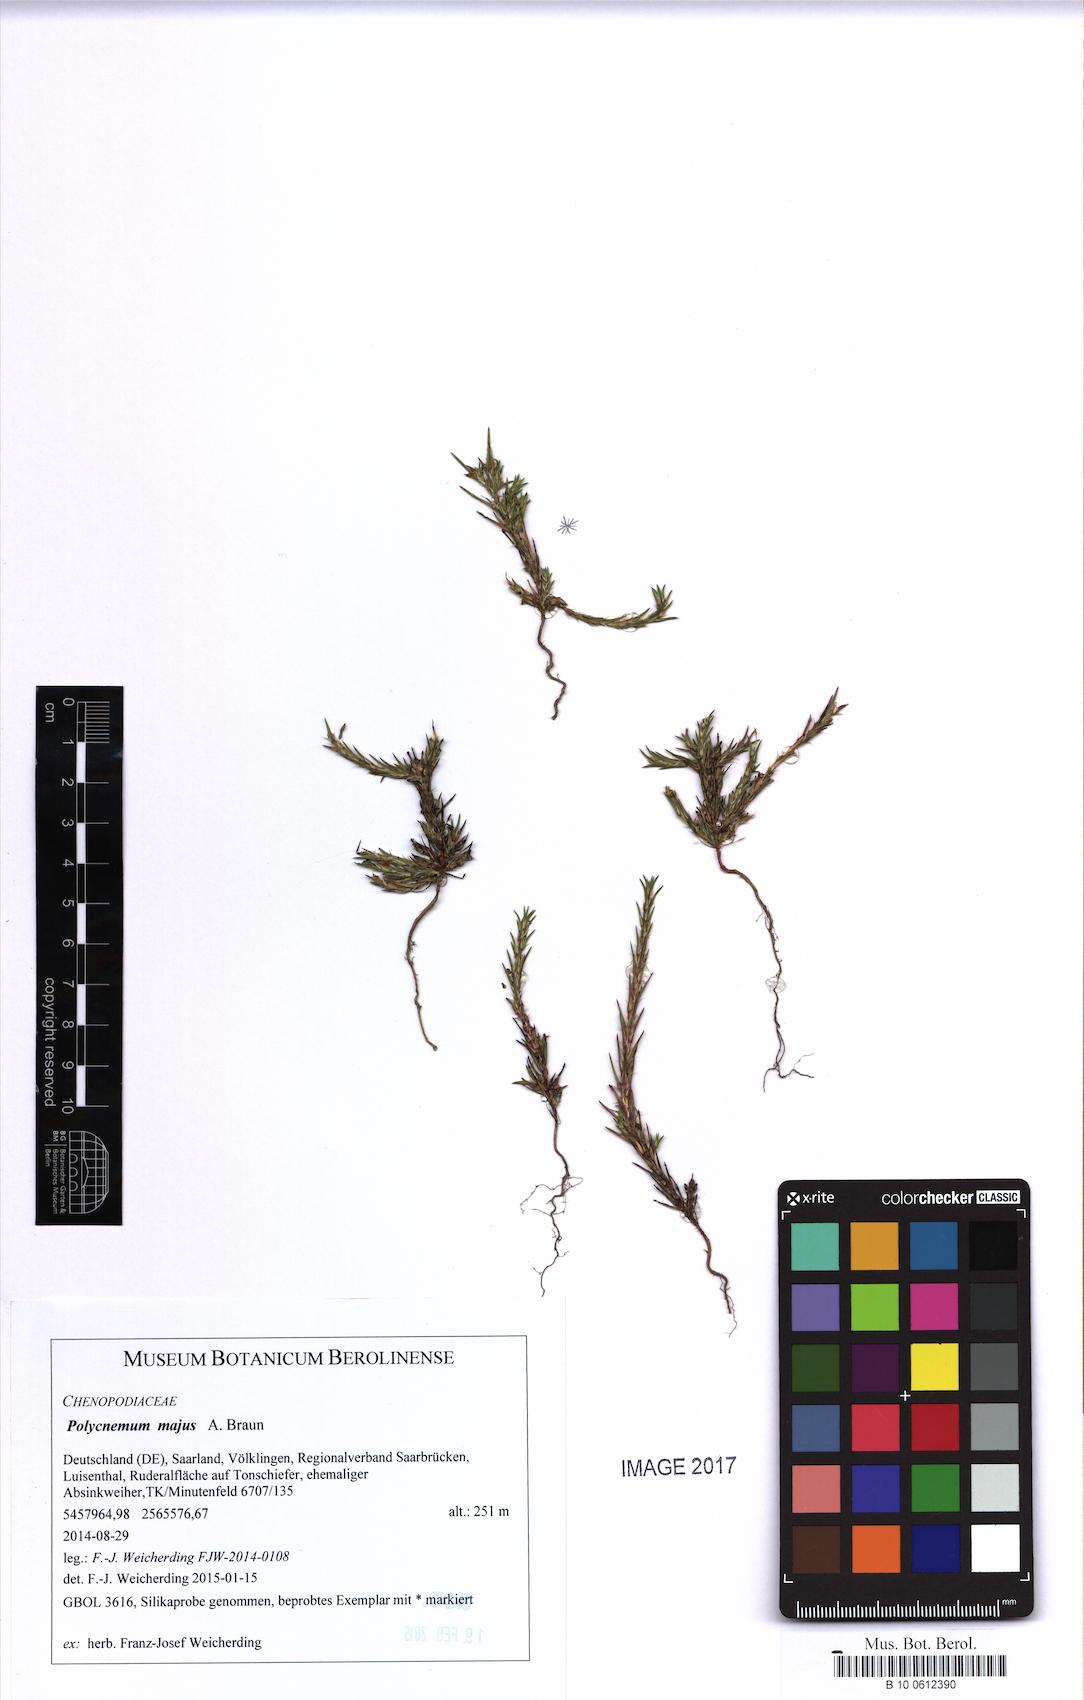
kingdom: Plantae
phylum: Tracheophyta
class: Magnoliopsida
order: Caryophyllales
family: Amaranthaceae
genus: Polycnemum
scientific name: Polycnemum majus
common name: Giant needleleaf
